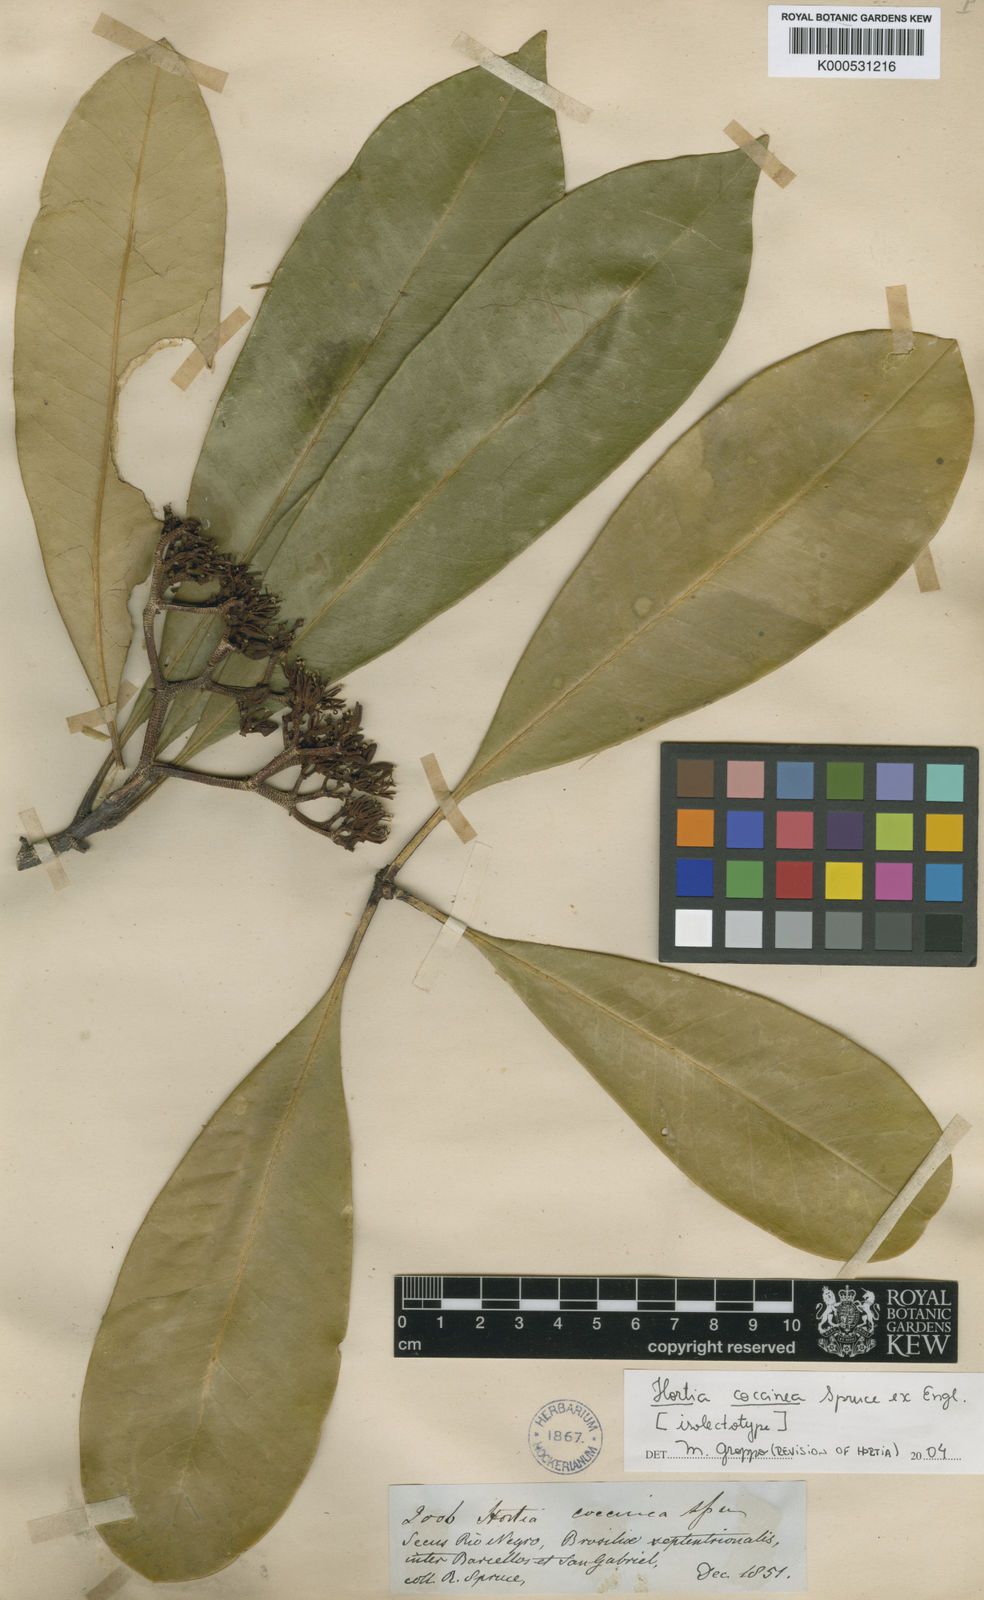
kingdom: Plantae
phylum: Tracheophyta
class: Magnoliopsida
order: Sapindales
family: Rutaceae
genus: Hortia
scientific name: Hortia coccinea
